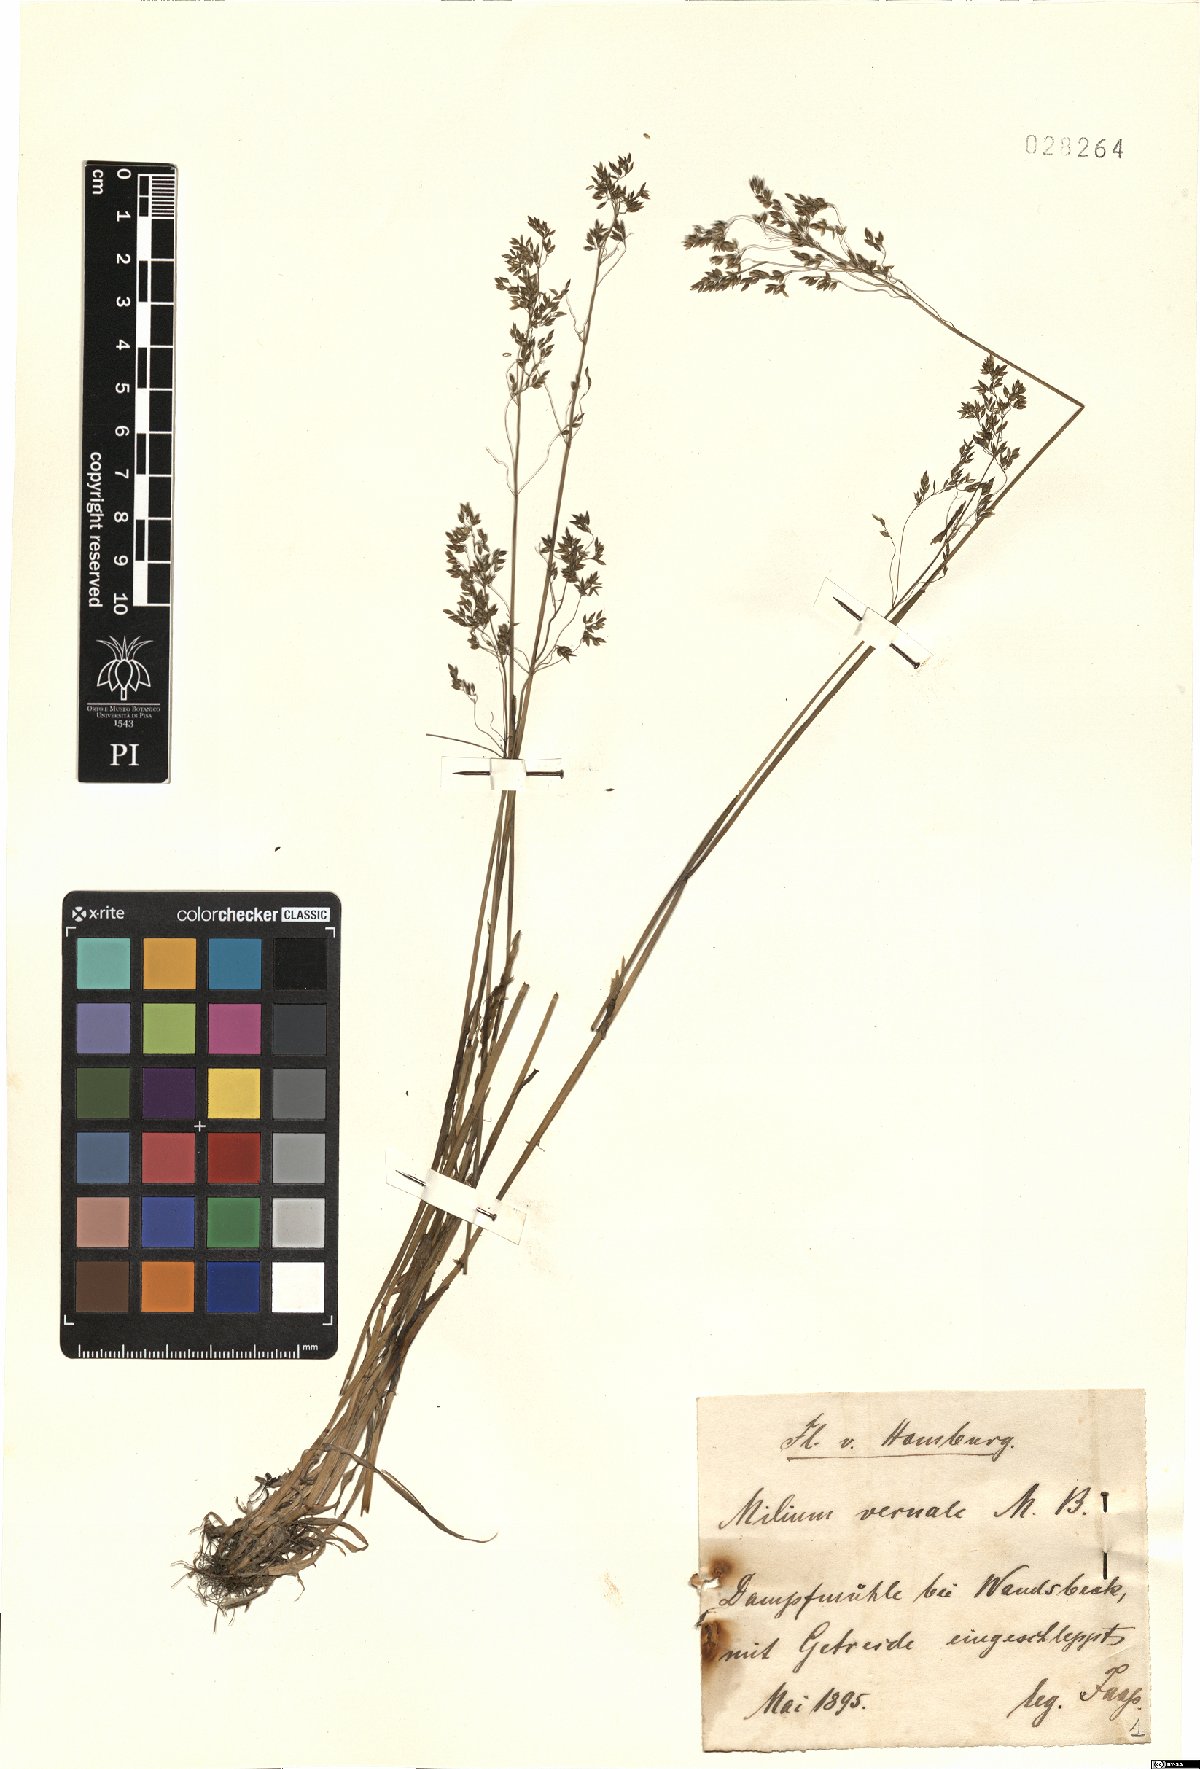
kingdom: Plantae
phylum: Tracheophyta
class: Liliopsida
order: Poales
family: Poaceae
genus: Milium
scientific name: Milium vernale
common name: Early millet
